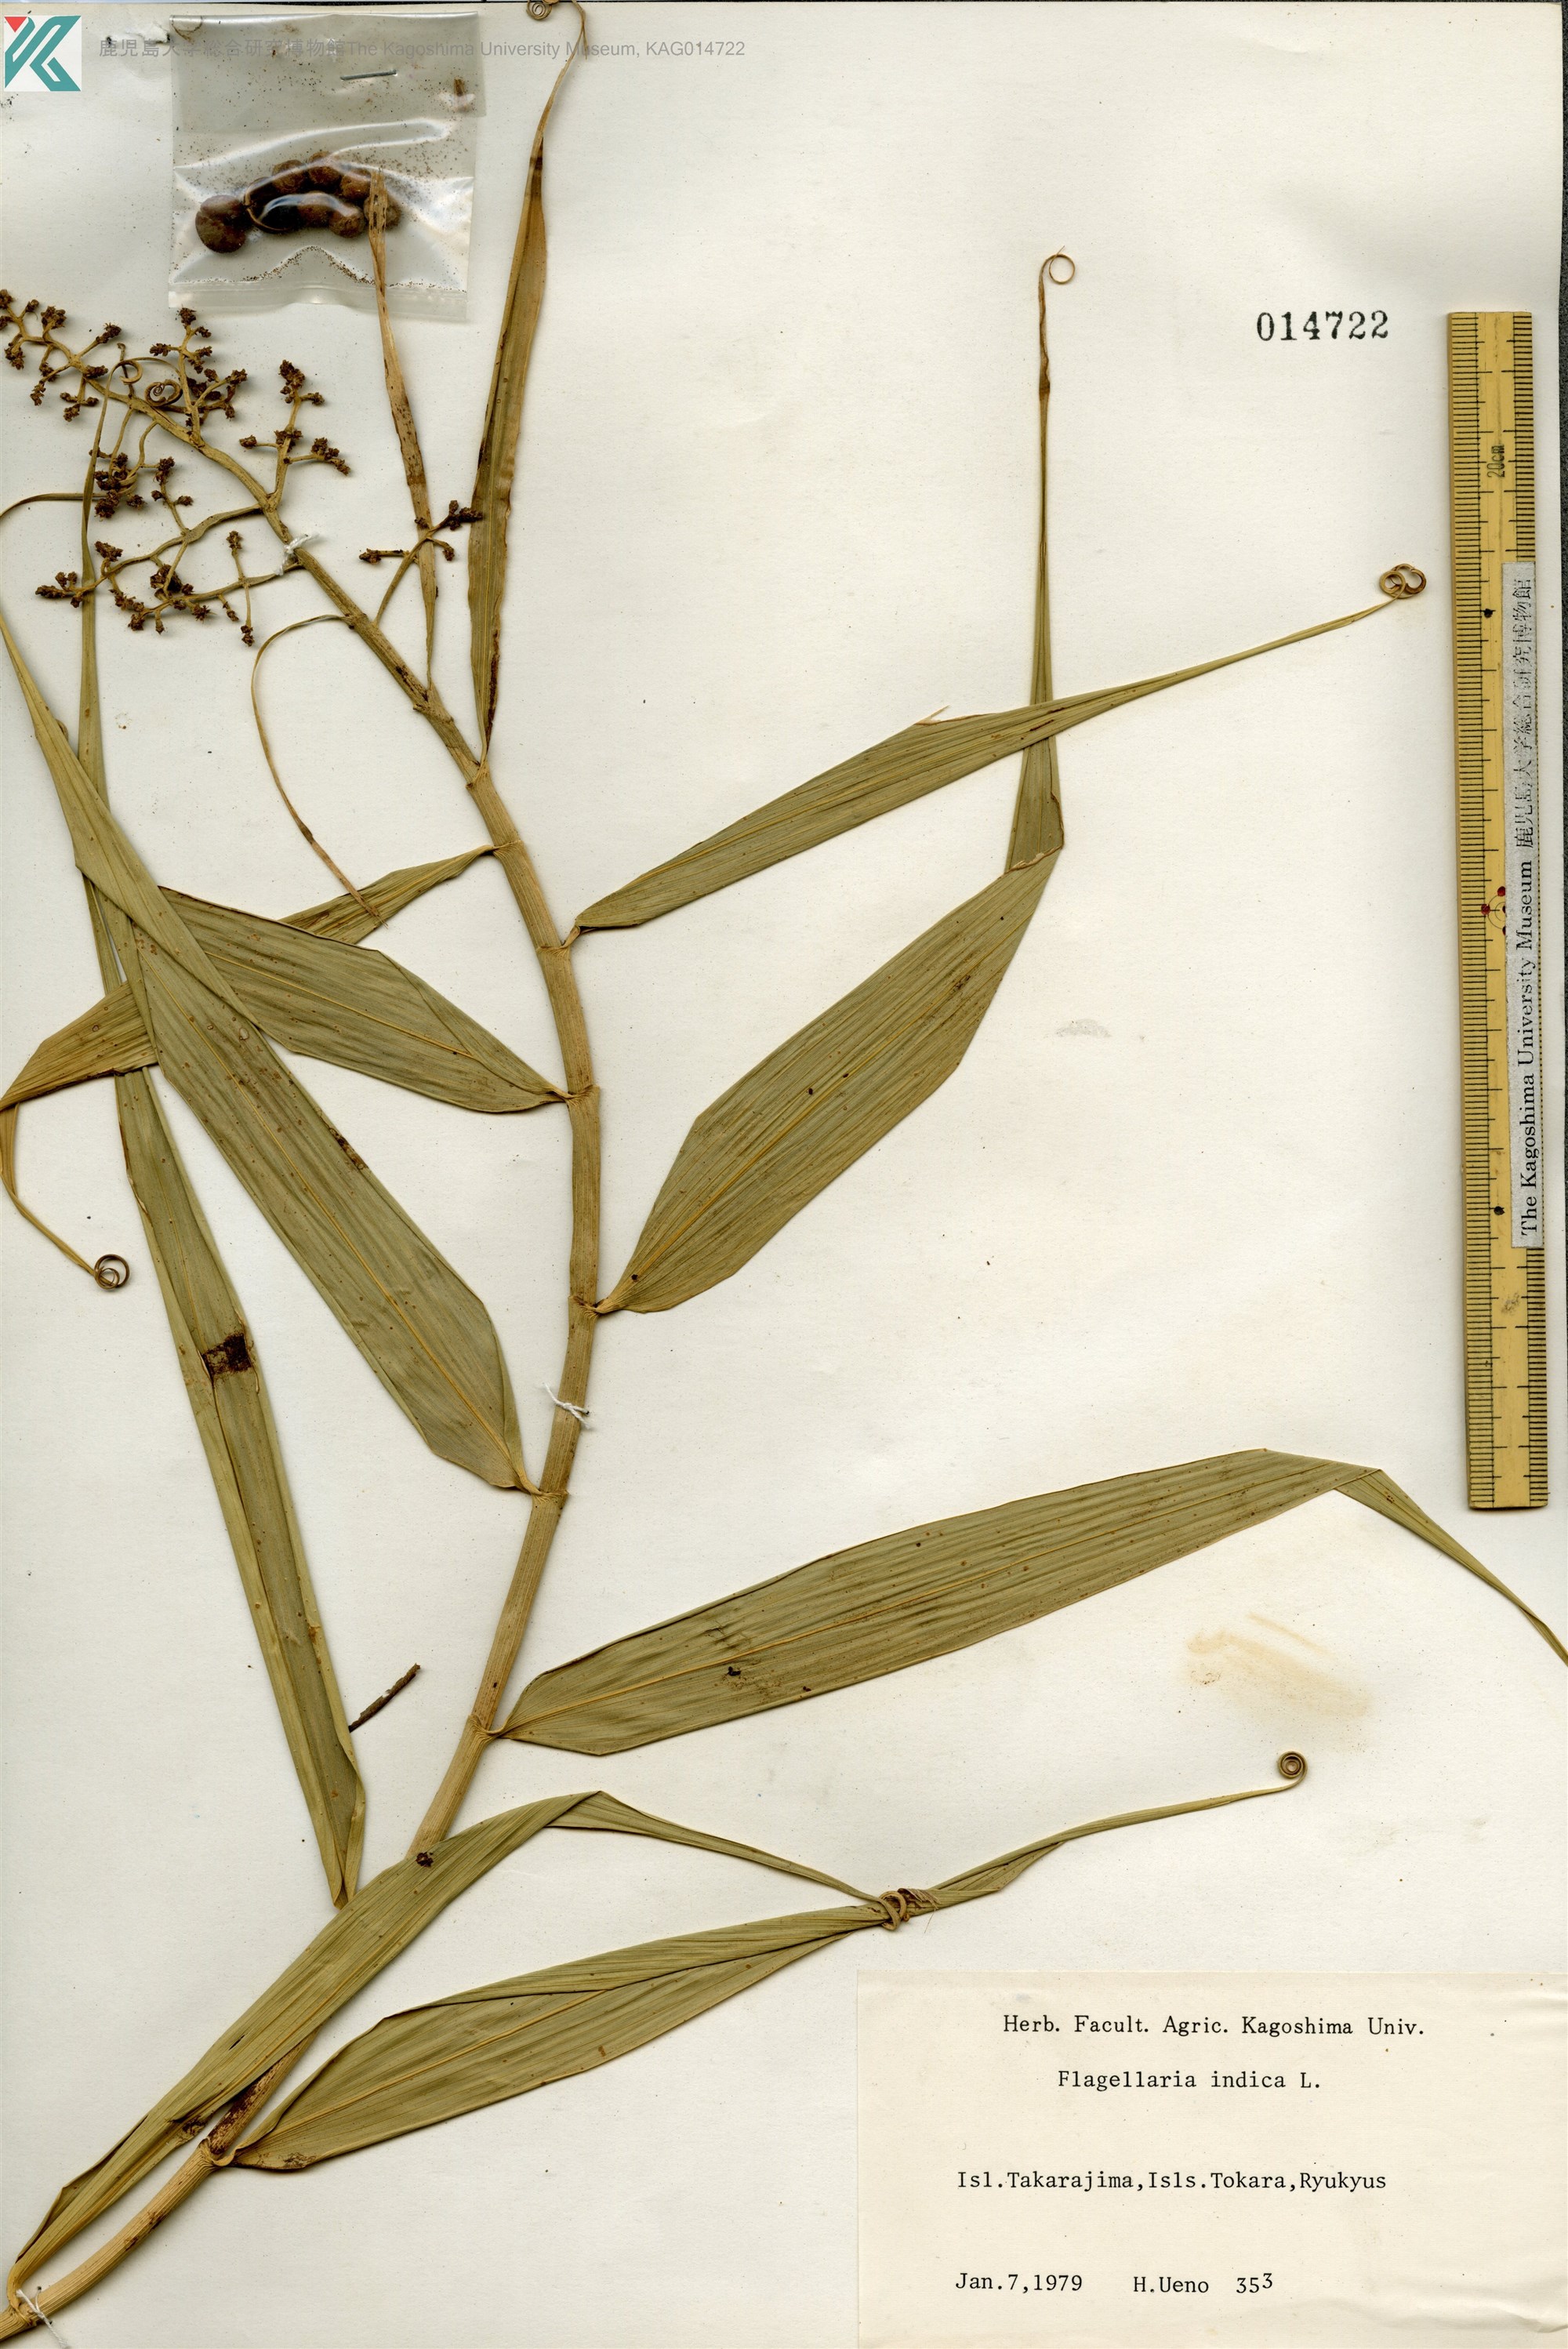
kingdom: Plantae
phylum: Tracheophyta
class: Liliopsida
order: Poales
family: Flagellariaceae
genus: Flagellaria
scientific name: Flagellaria indica
